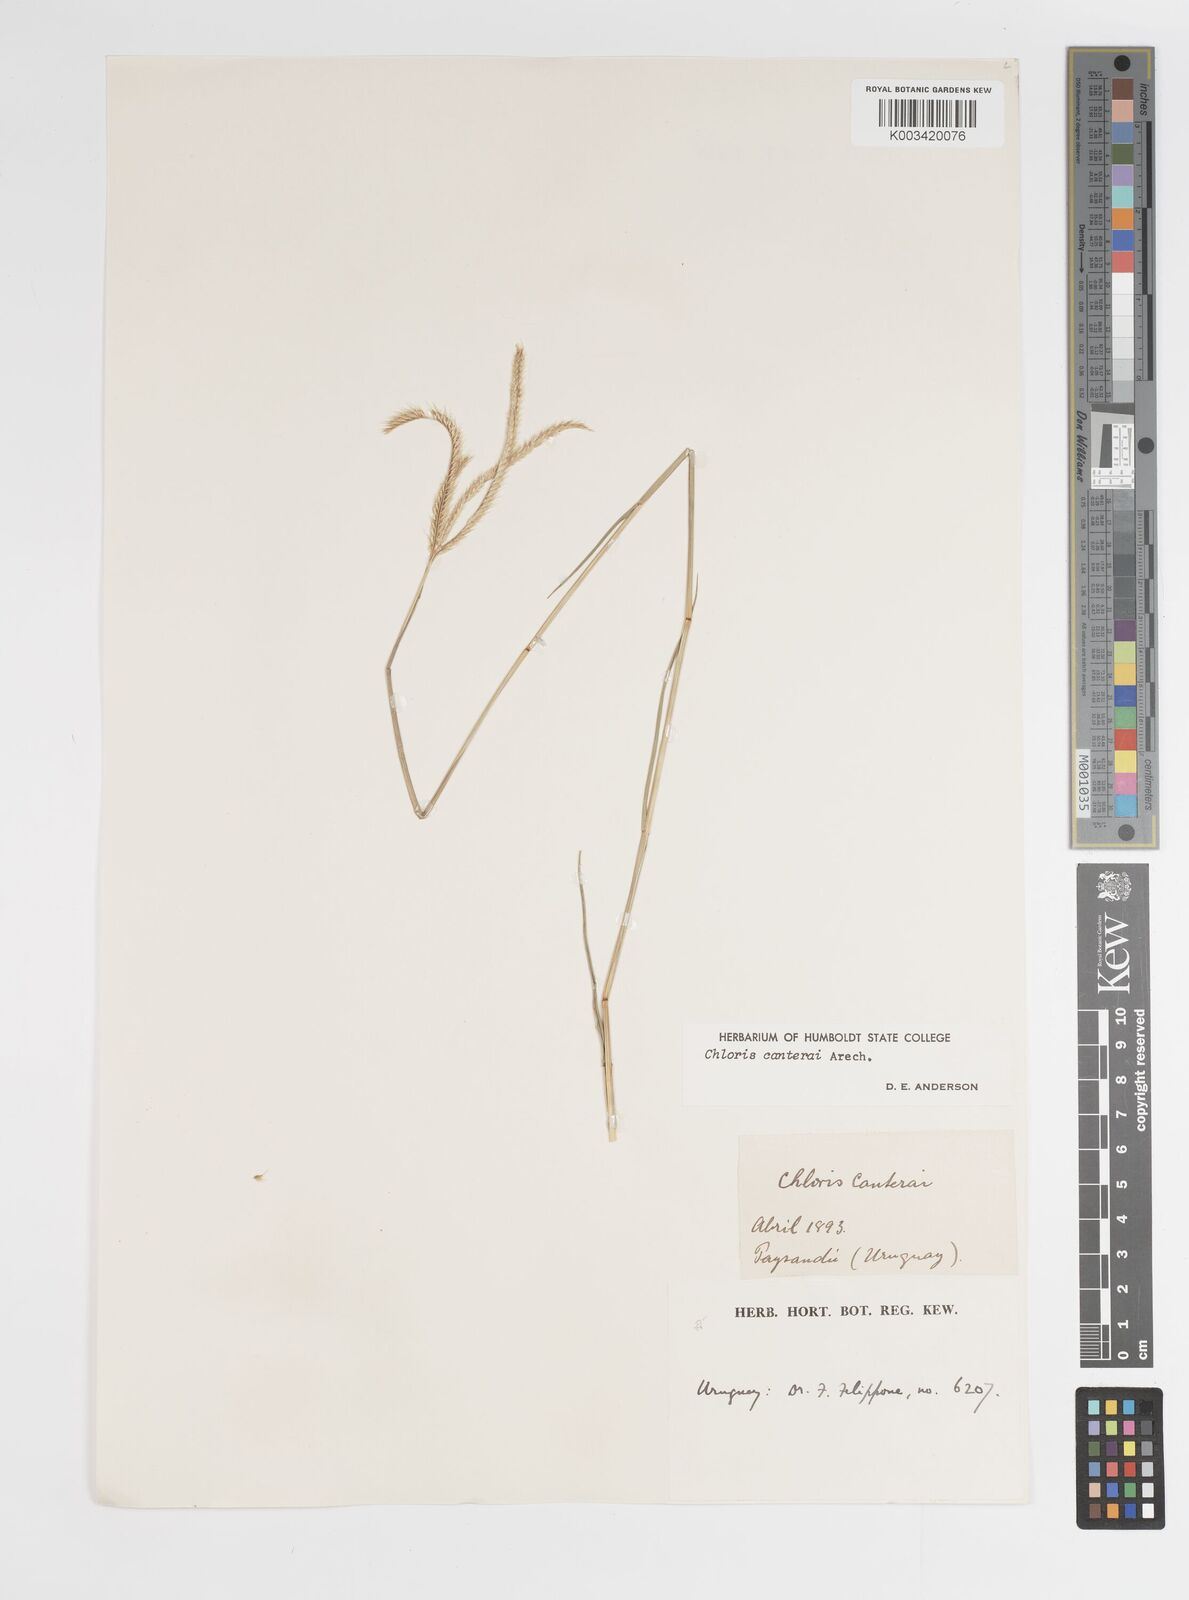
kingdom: Plantae
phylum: Tracheophyta
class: Liliopsida
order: Poales
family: Poaceae
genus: Stapfochloa
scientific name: Stapfochloa canterae
